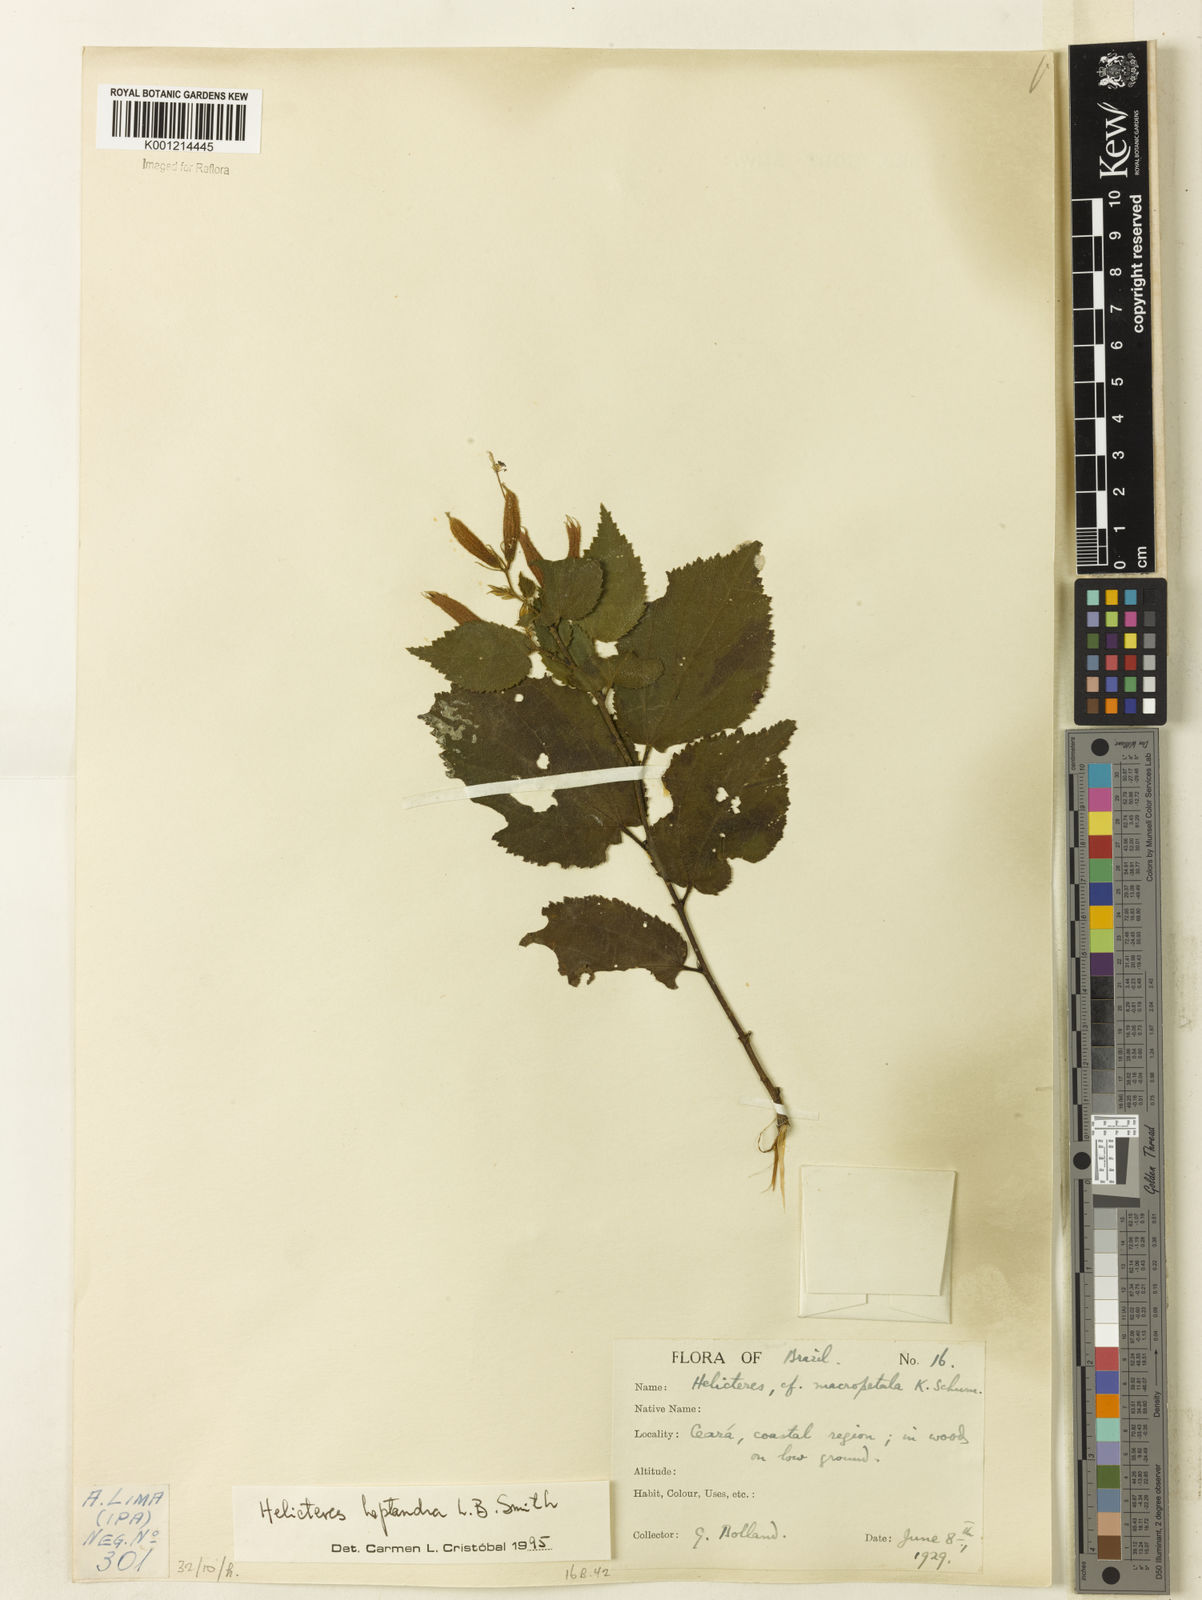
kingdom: Plantae
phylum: Tracheophyta
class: Magnoliopsida
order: Malvales
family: Malvaceae
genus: Helicteres
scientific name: Helicteres heptandra
